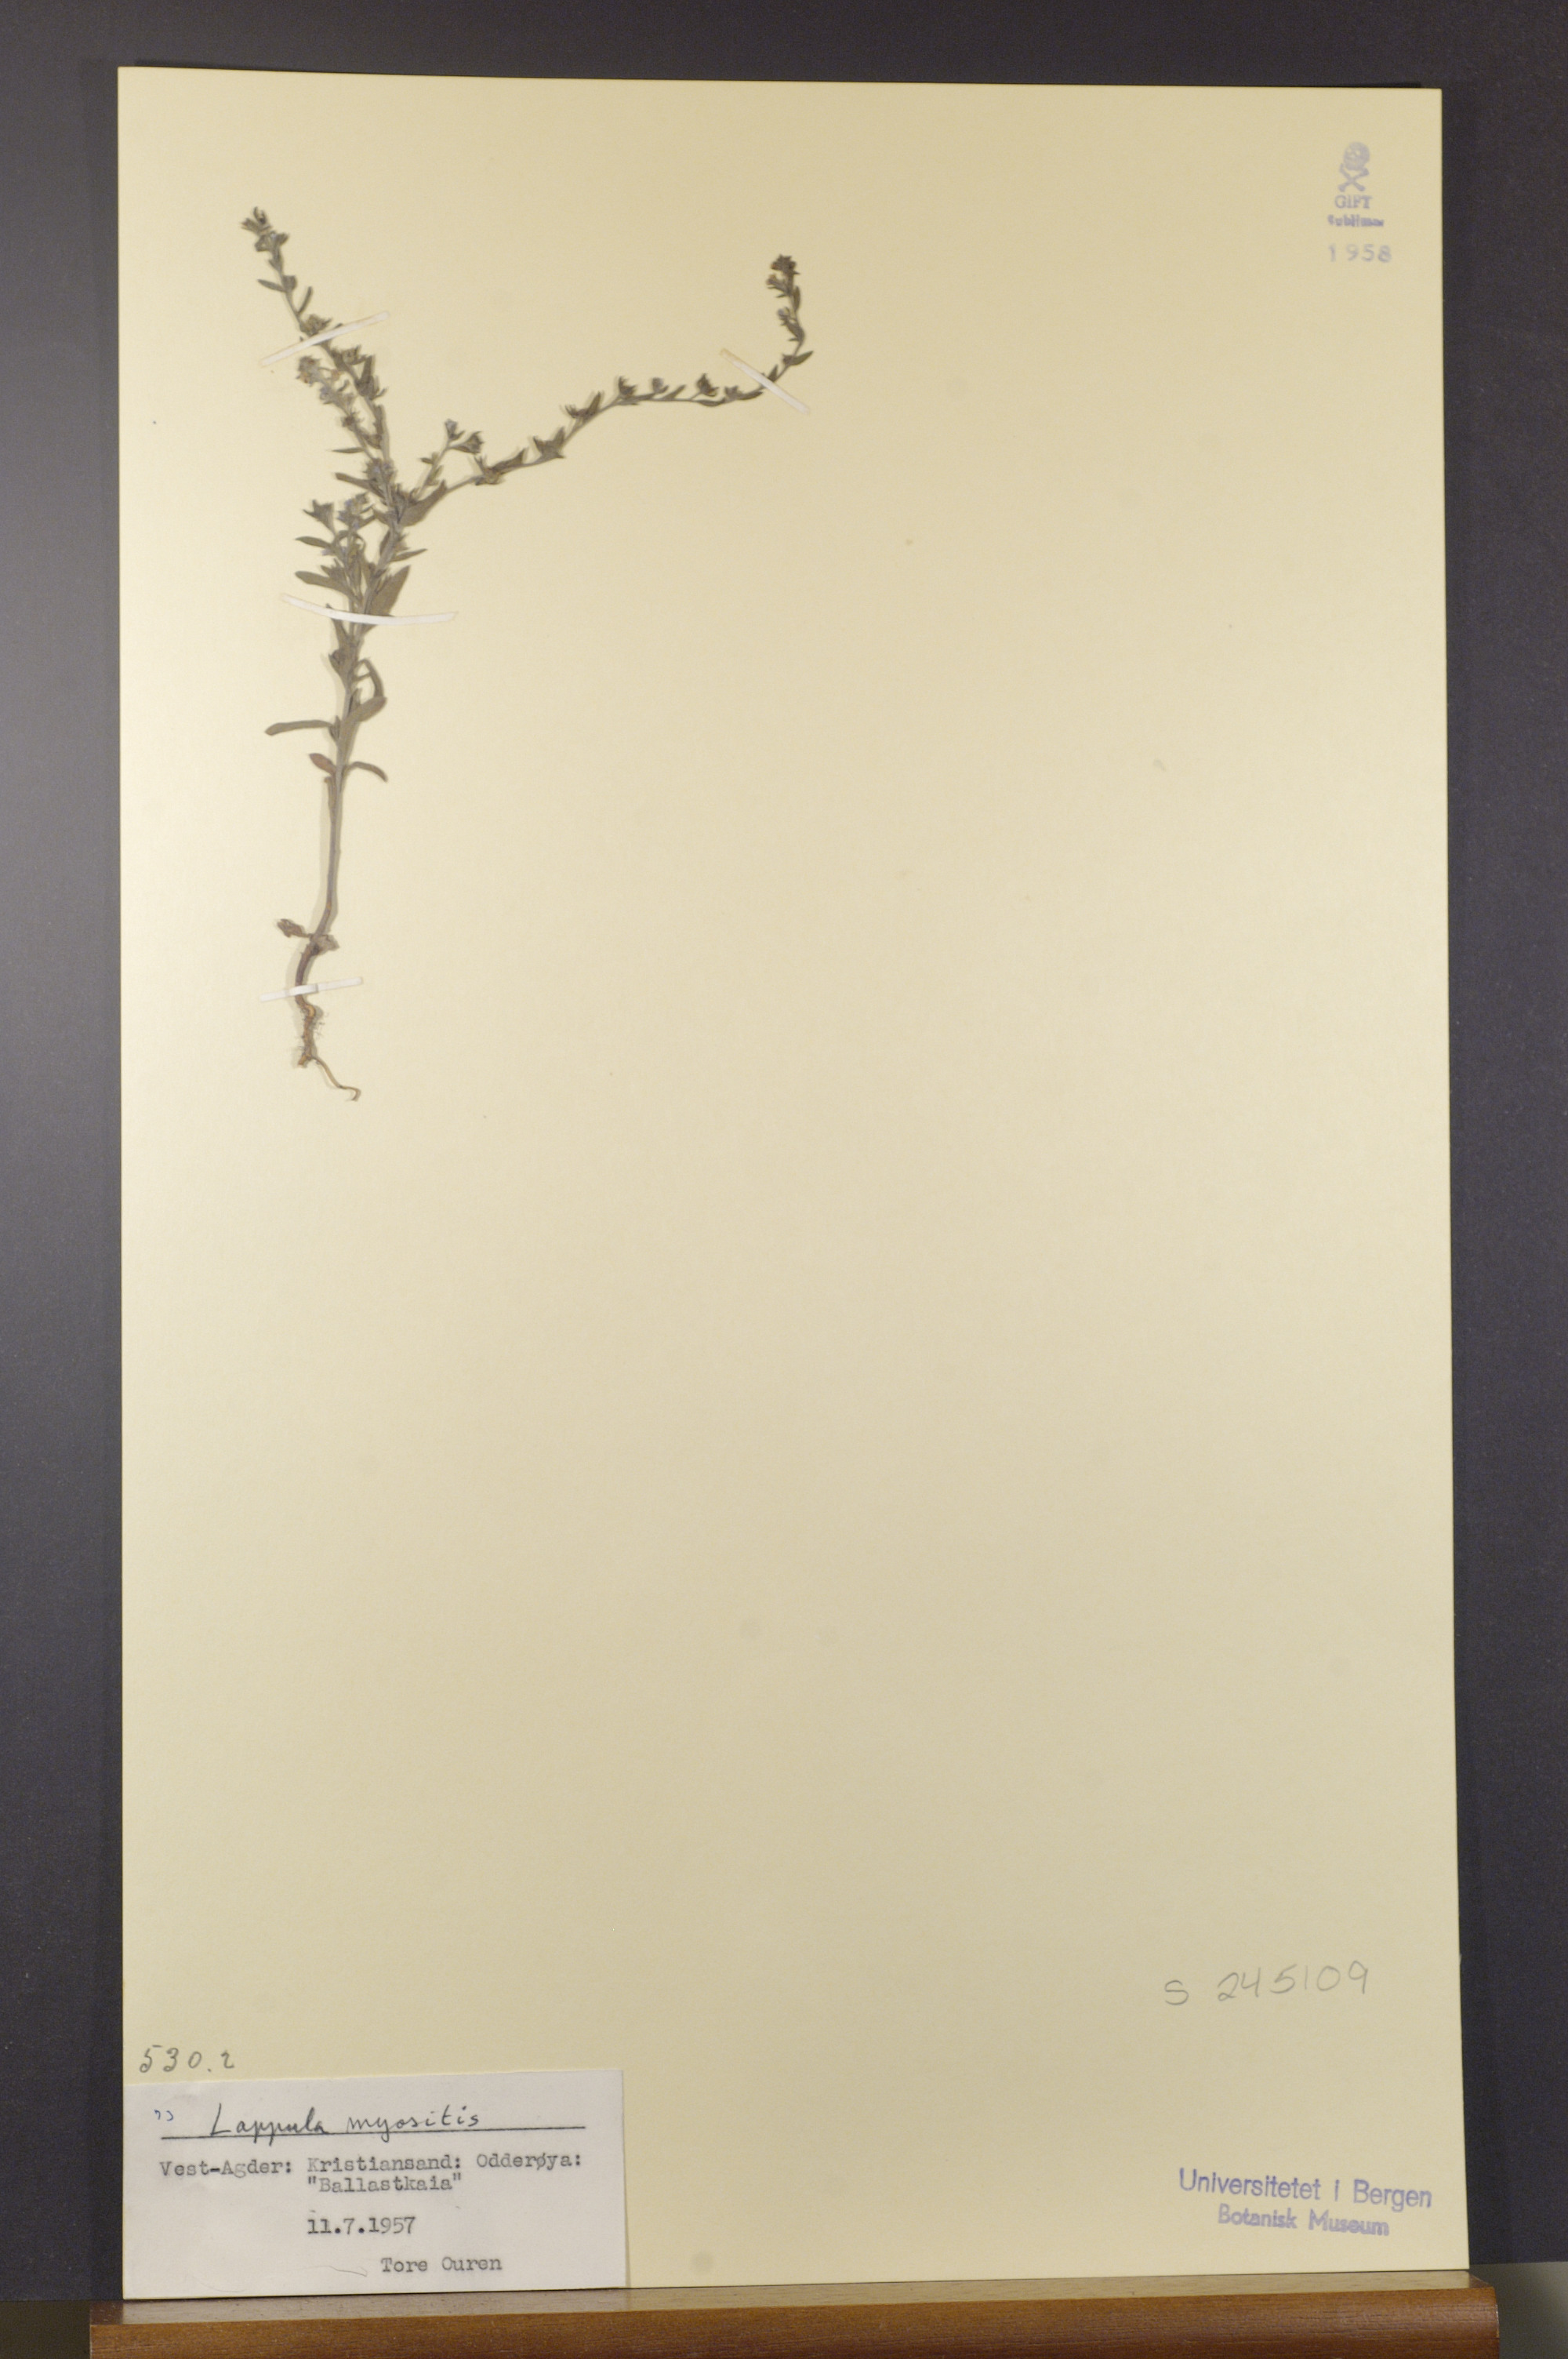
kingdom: Plantae
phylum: Tracheophyta
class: Magnoliopsida
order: Boraginales
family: Boraginaceae
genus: Lappula
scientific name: Lappula squarrosa
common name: European stickseed
